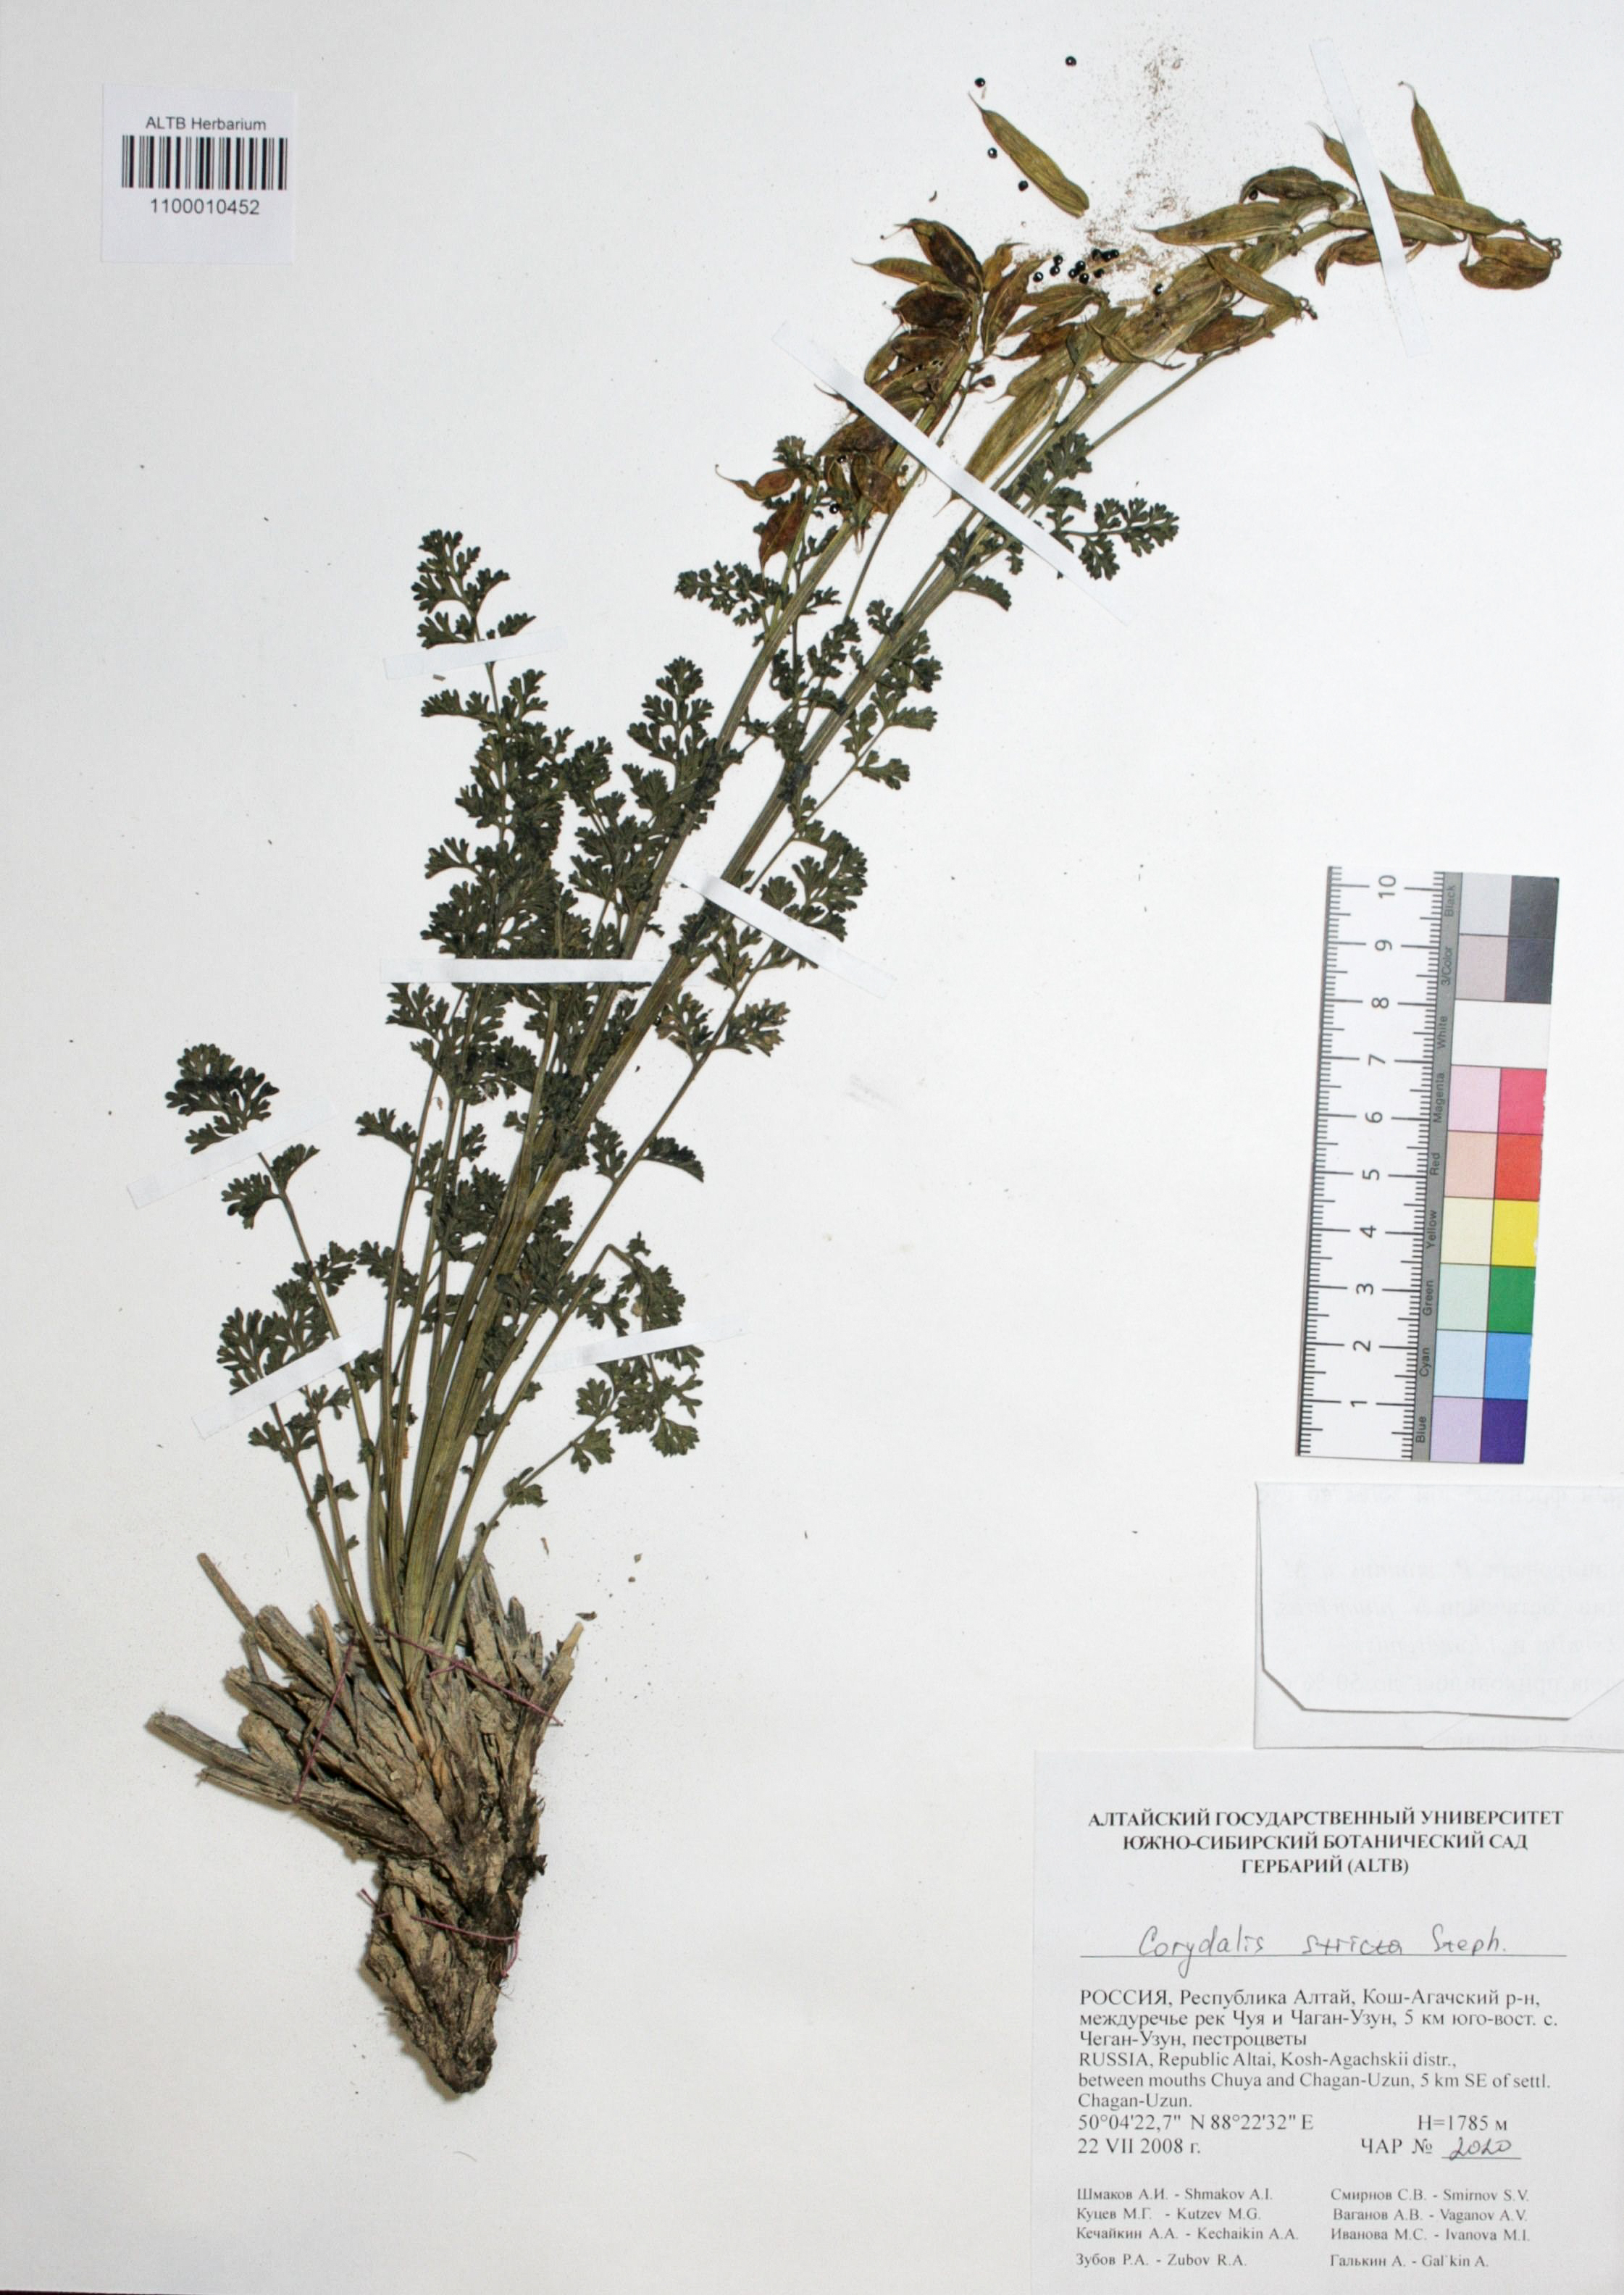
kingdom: Plantae
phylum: Tracheophyta
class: Magnoliopsida
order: Ranunculales
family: Papaveraceae
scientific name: Papaveraceae
